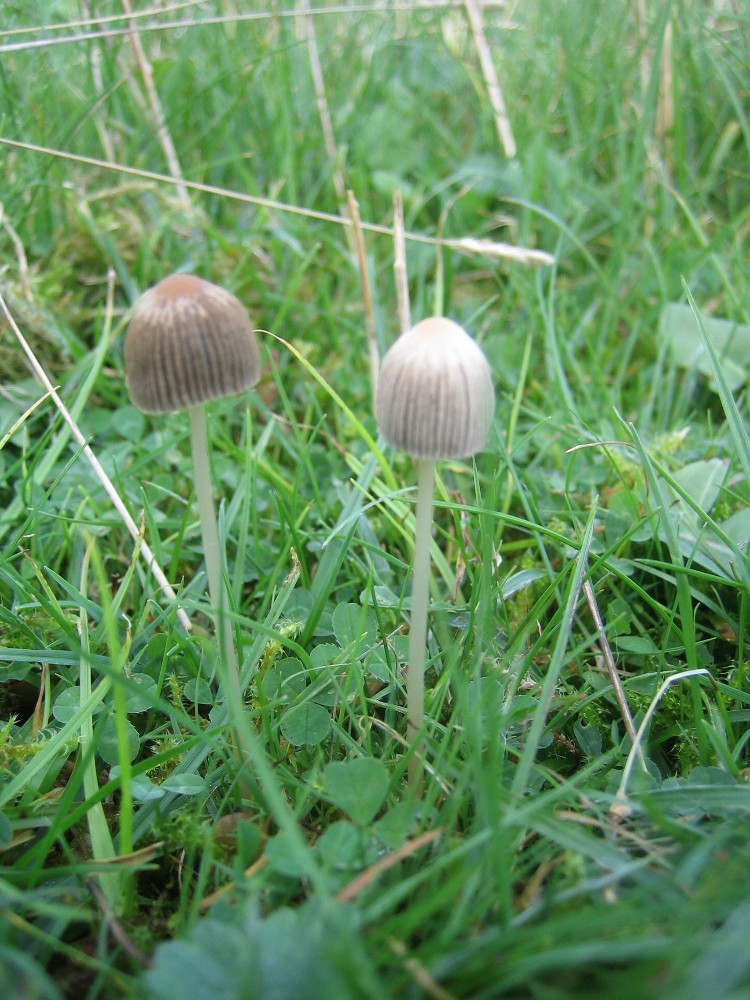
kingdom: Fungi
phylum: Basidiomycota
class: Agaricomycetes
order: Agaricales
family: Psathyrellaceae
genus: Parasola
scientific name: Parasola
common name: hjulhat
